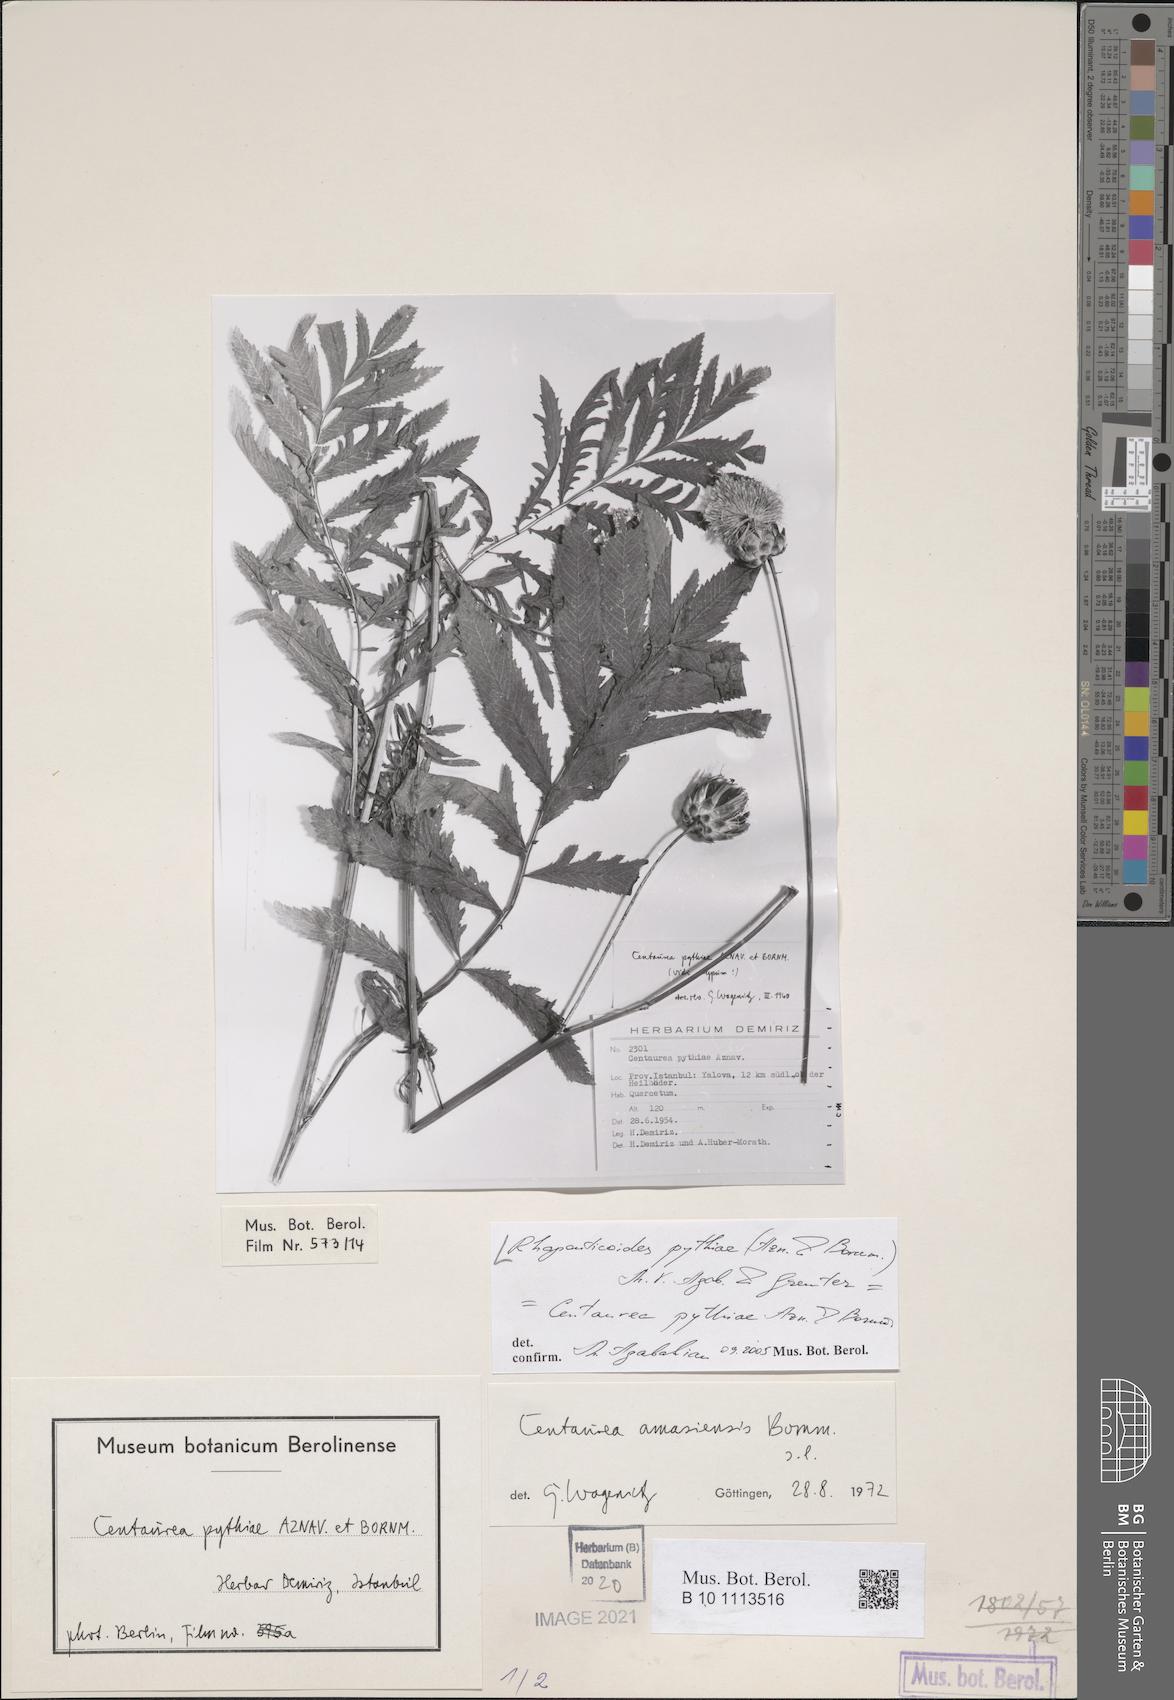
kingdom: Plantae
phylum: Tracheophyta
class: Magnoliopsida
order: Asterales
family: Asteraceae
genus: Rhaponticoides
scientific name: Rhaponticoides pythiae
